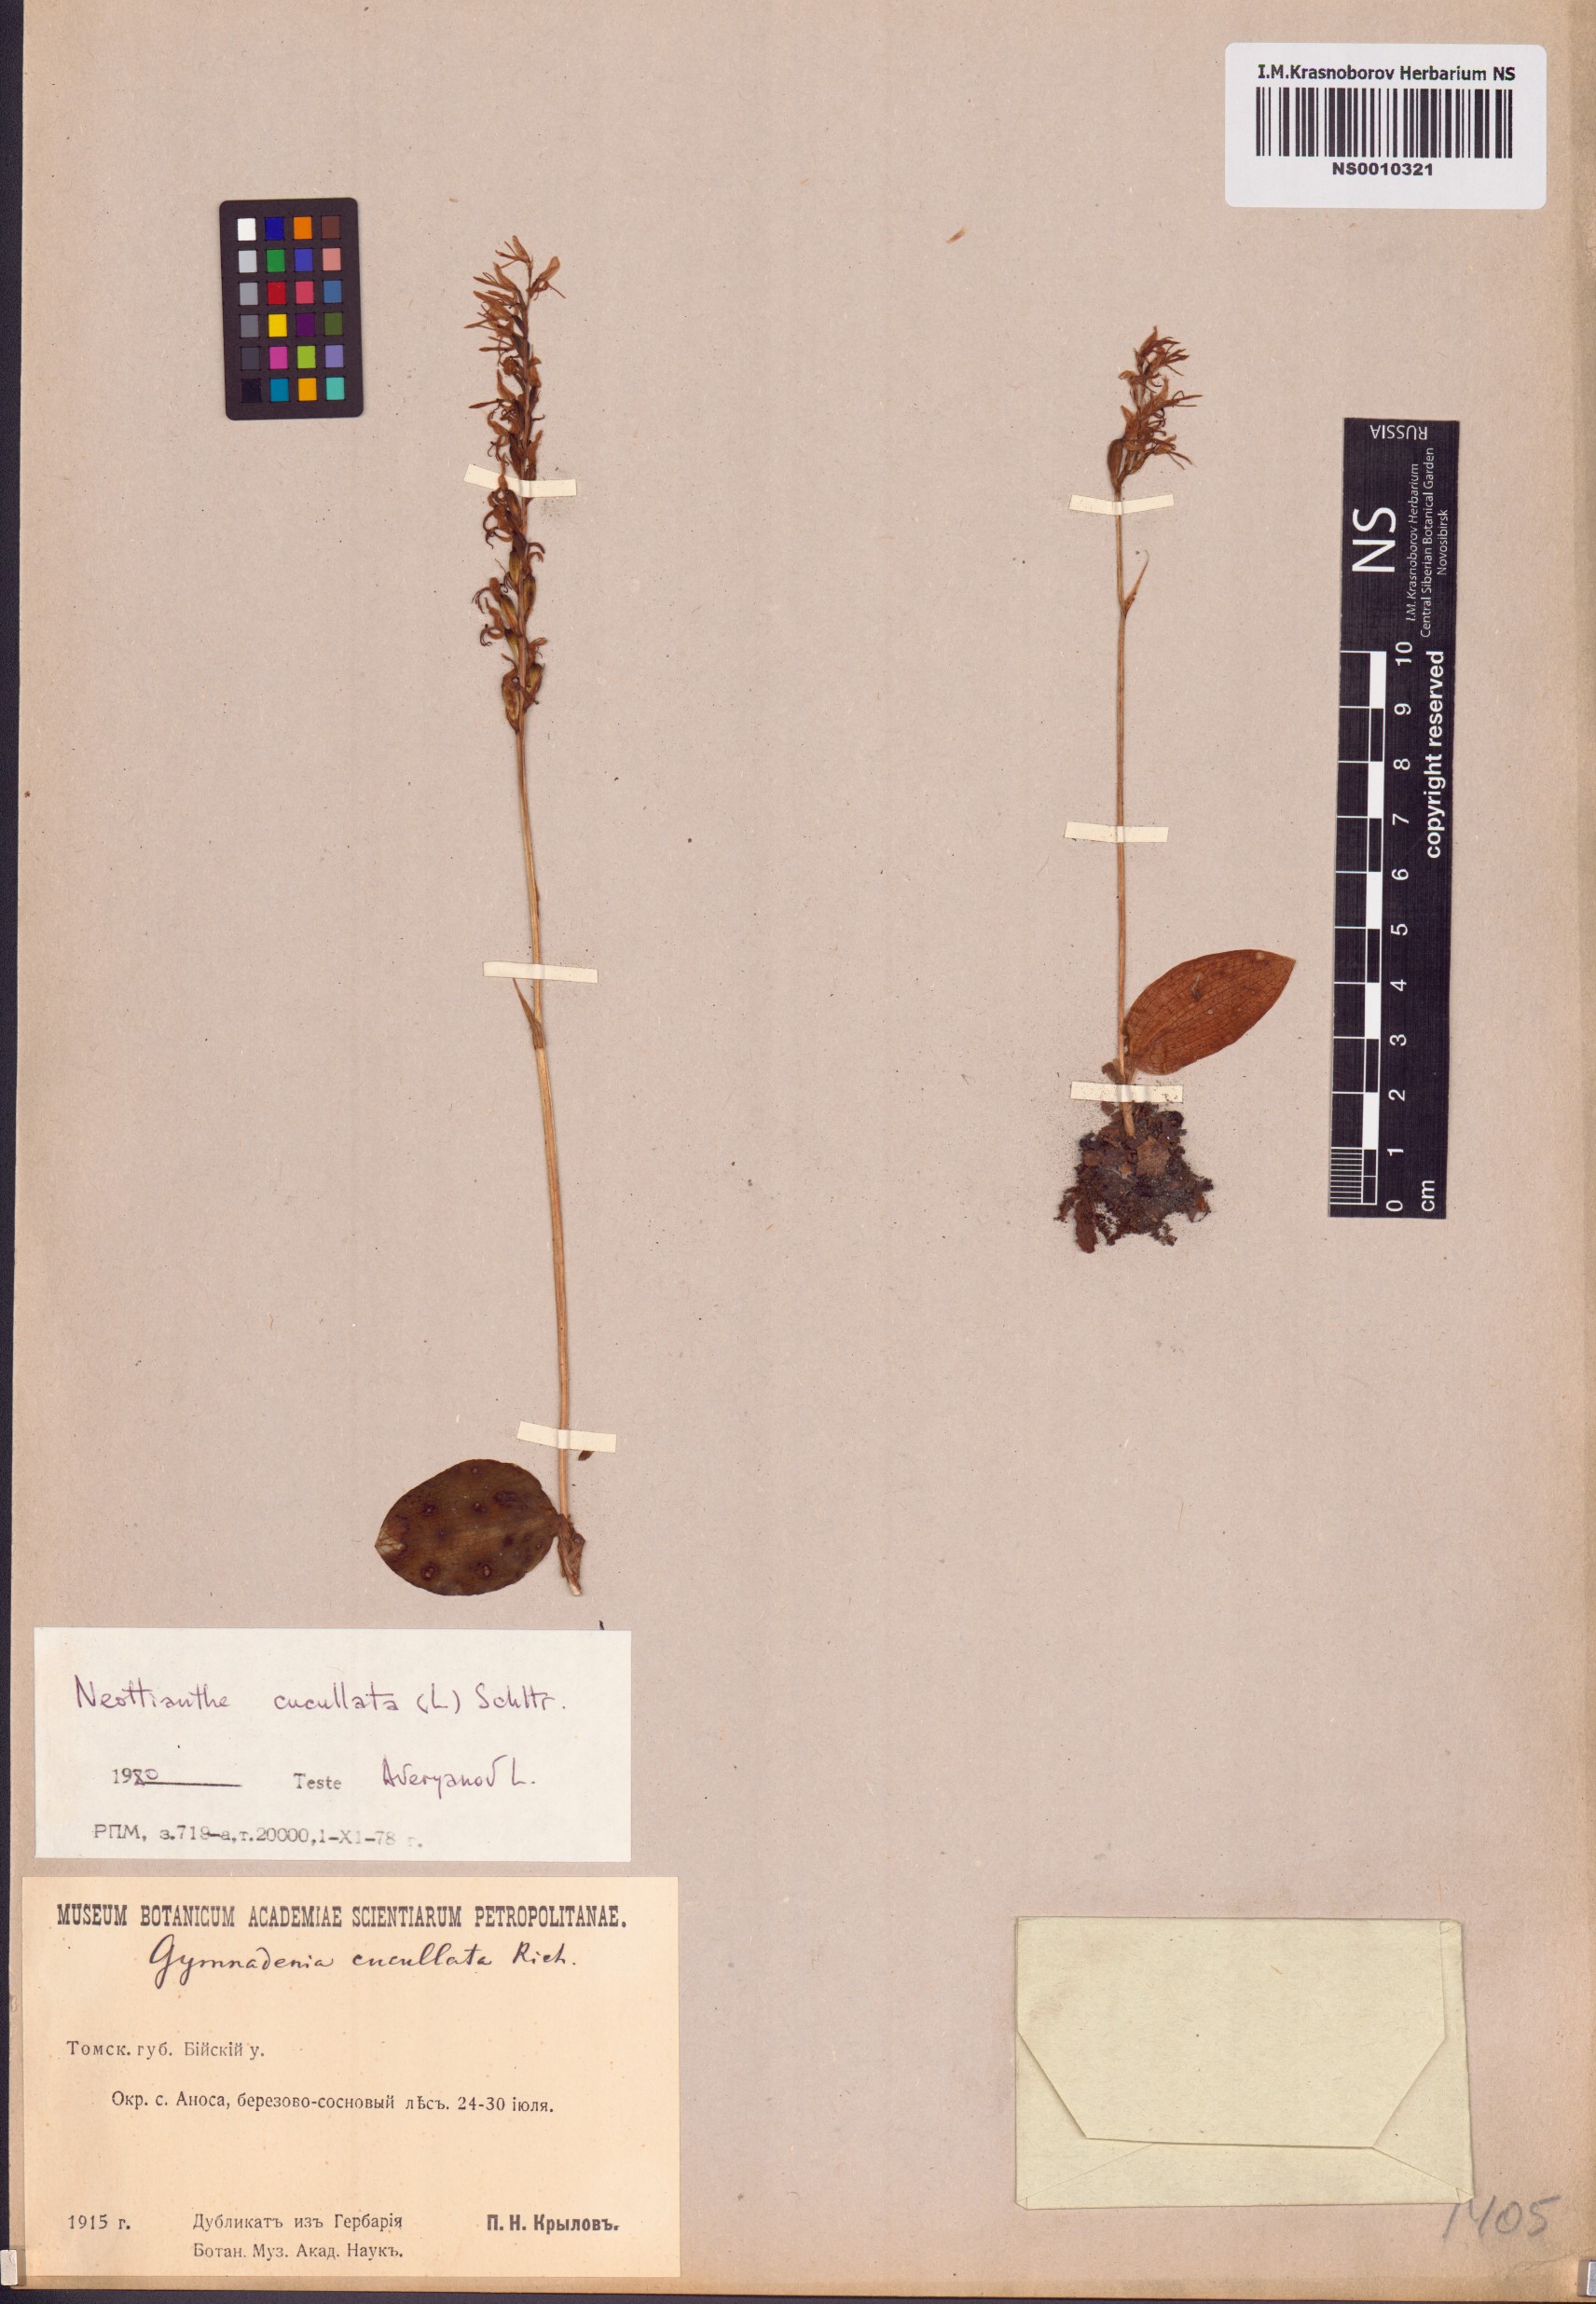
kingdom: Plantae
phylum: Tracheophyta
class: Liliopsida
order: Asparagales
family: Orchidaceae
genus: Hemipilia
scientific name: Hemipilia cucullata
